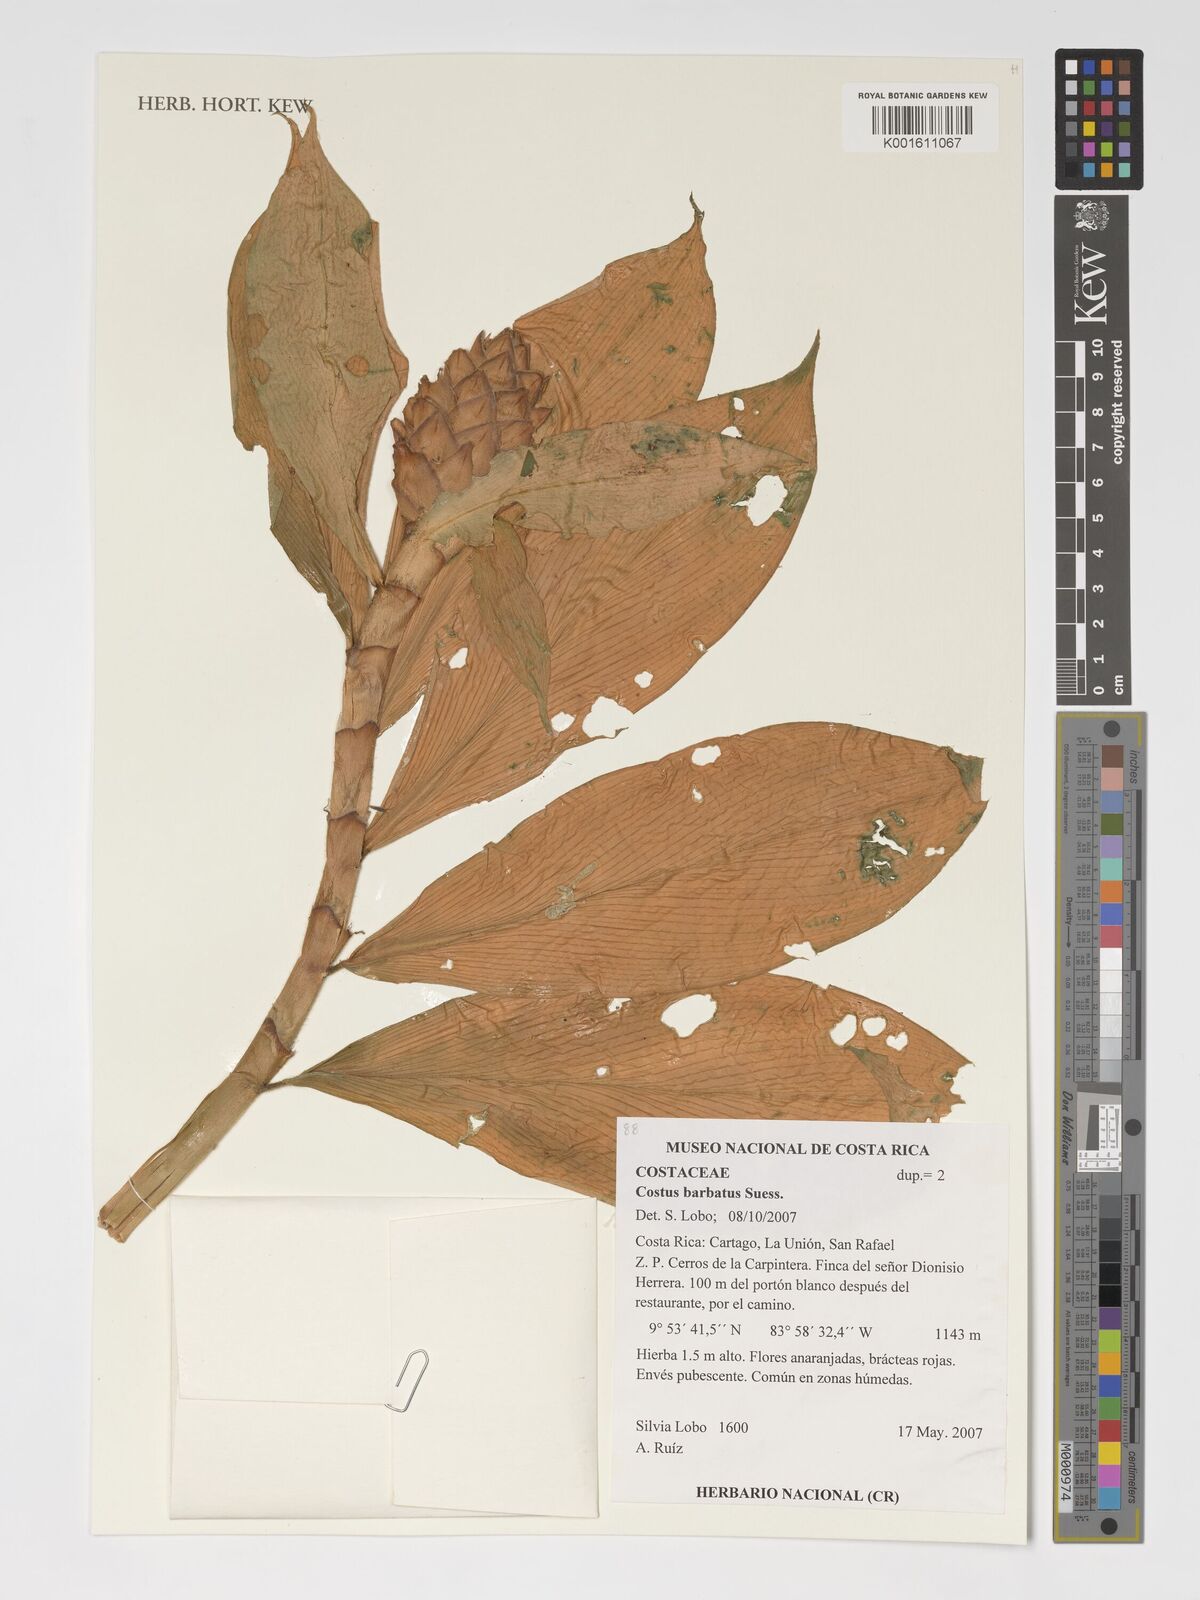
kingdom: Plantae
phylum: Tracheophyta
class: Liliopsida
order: Zingiberales
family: Costaceae
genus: Costus
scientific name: Costus barbatus
